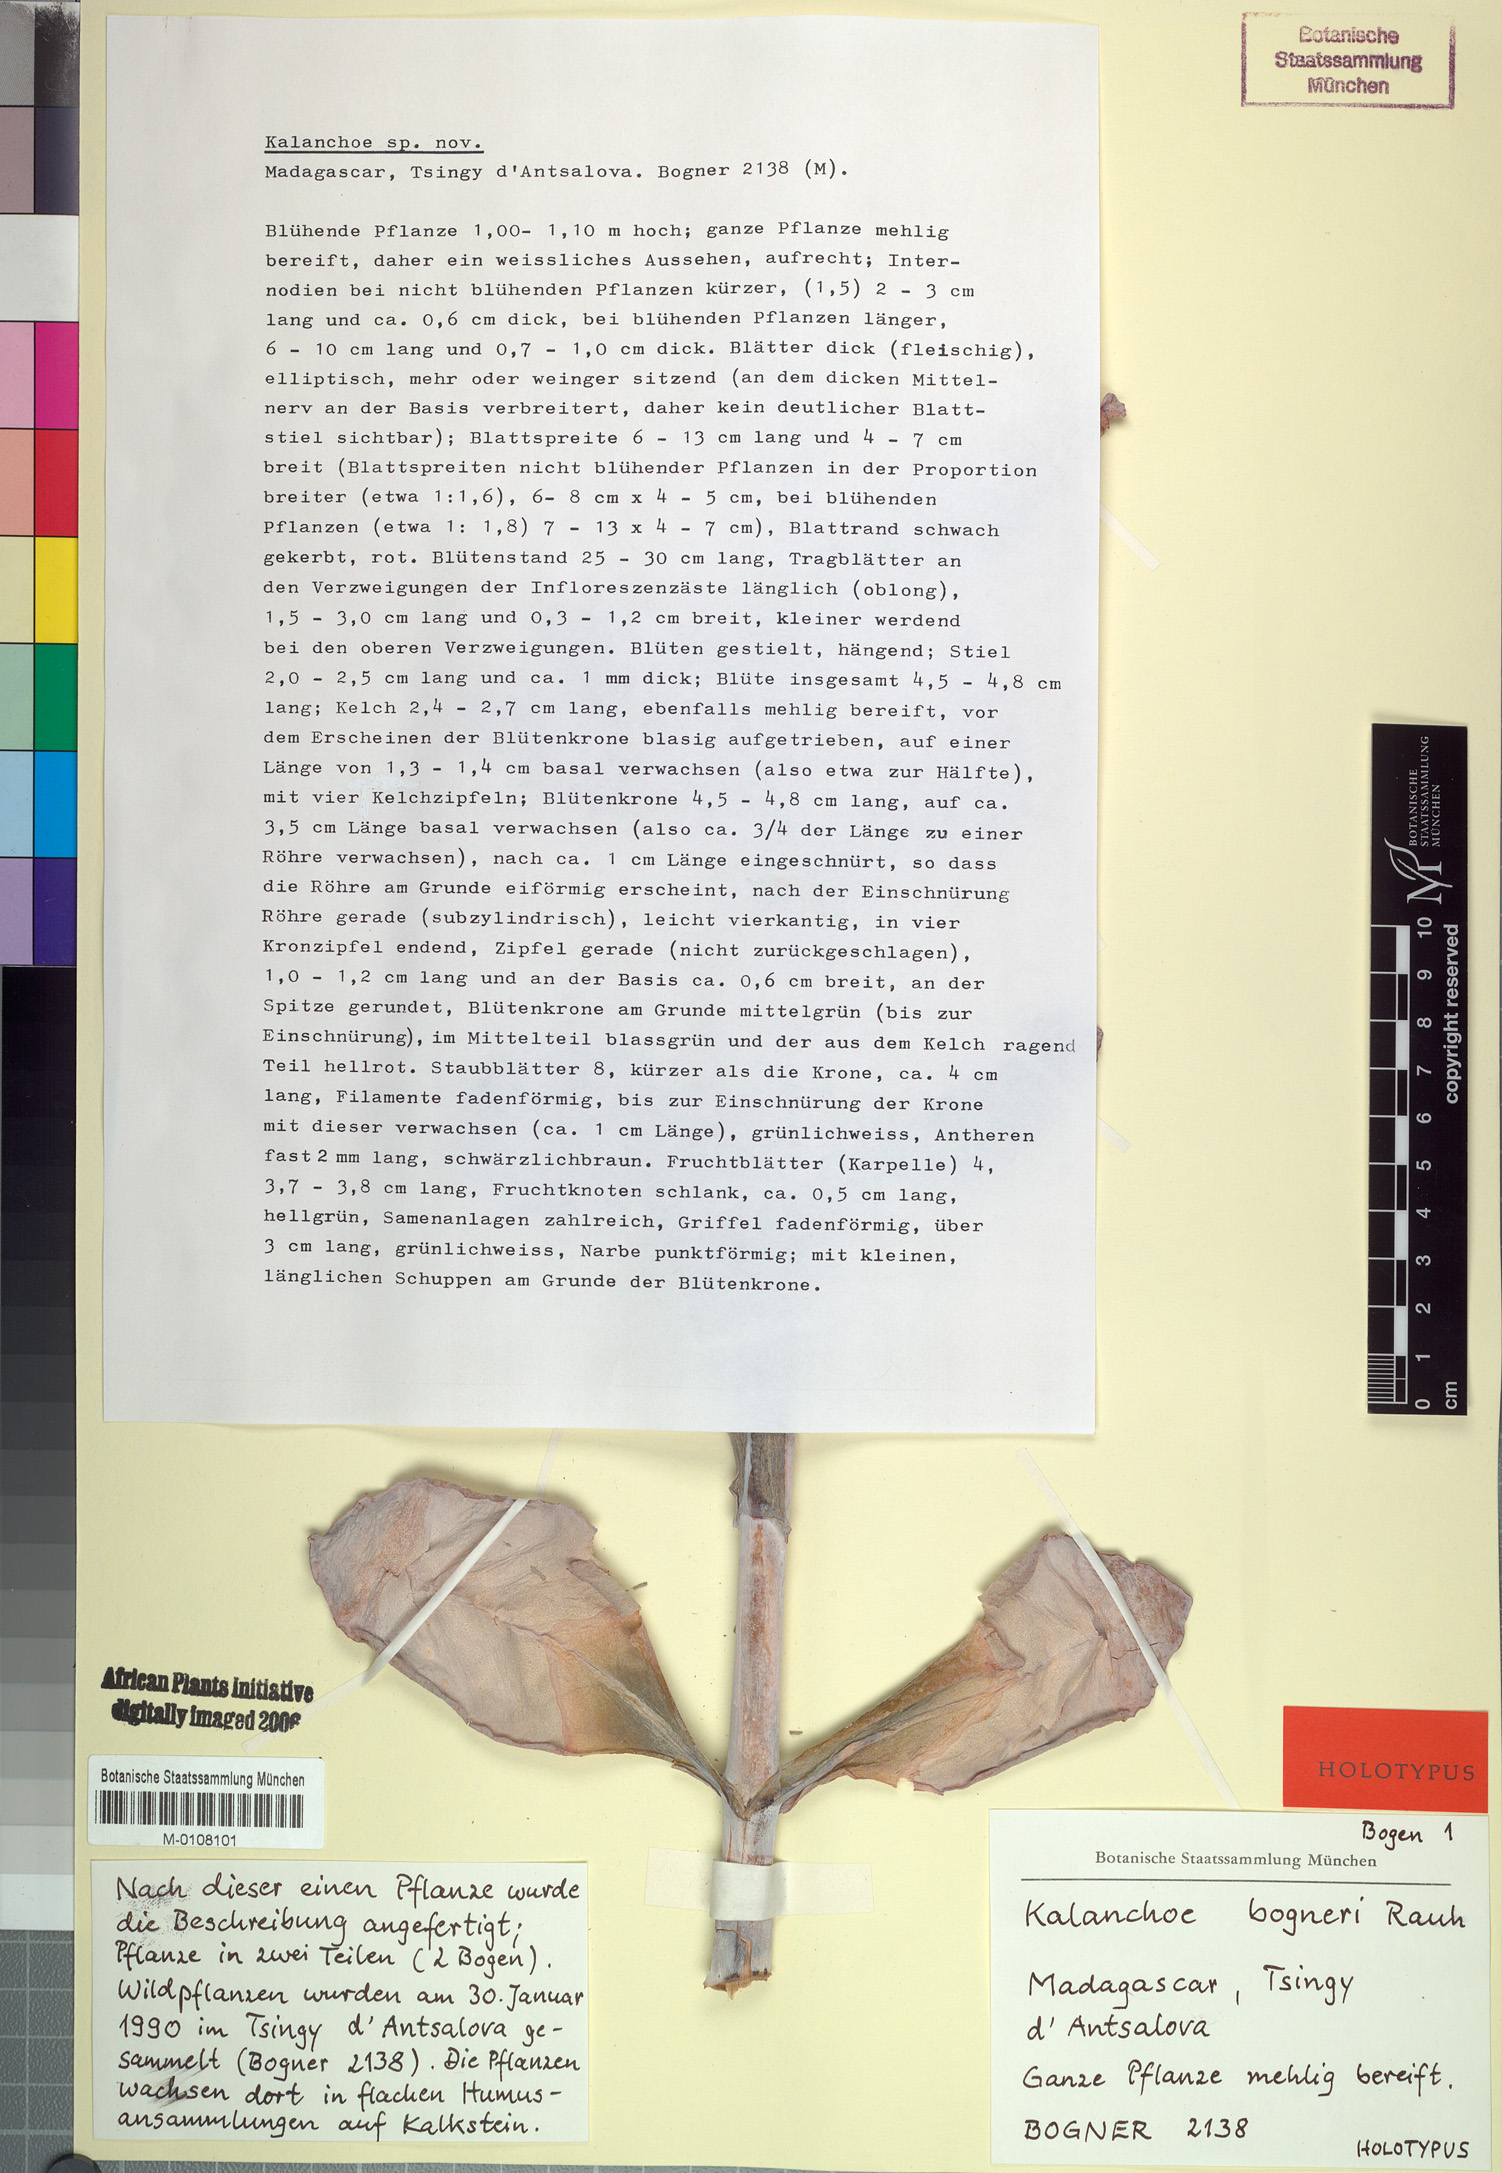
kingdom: Plantae
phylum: Tracheophyta
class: Magnoliopsida
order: Saxifragales
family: Crassulaceae
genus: Kalanchoe
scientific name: Kalanchoe bogneri
